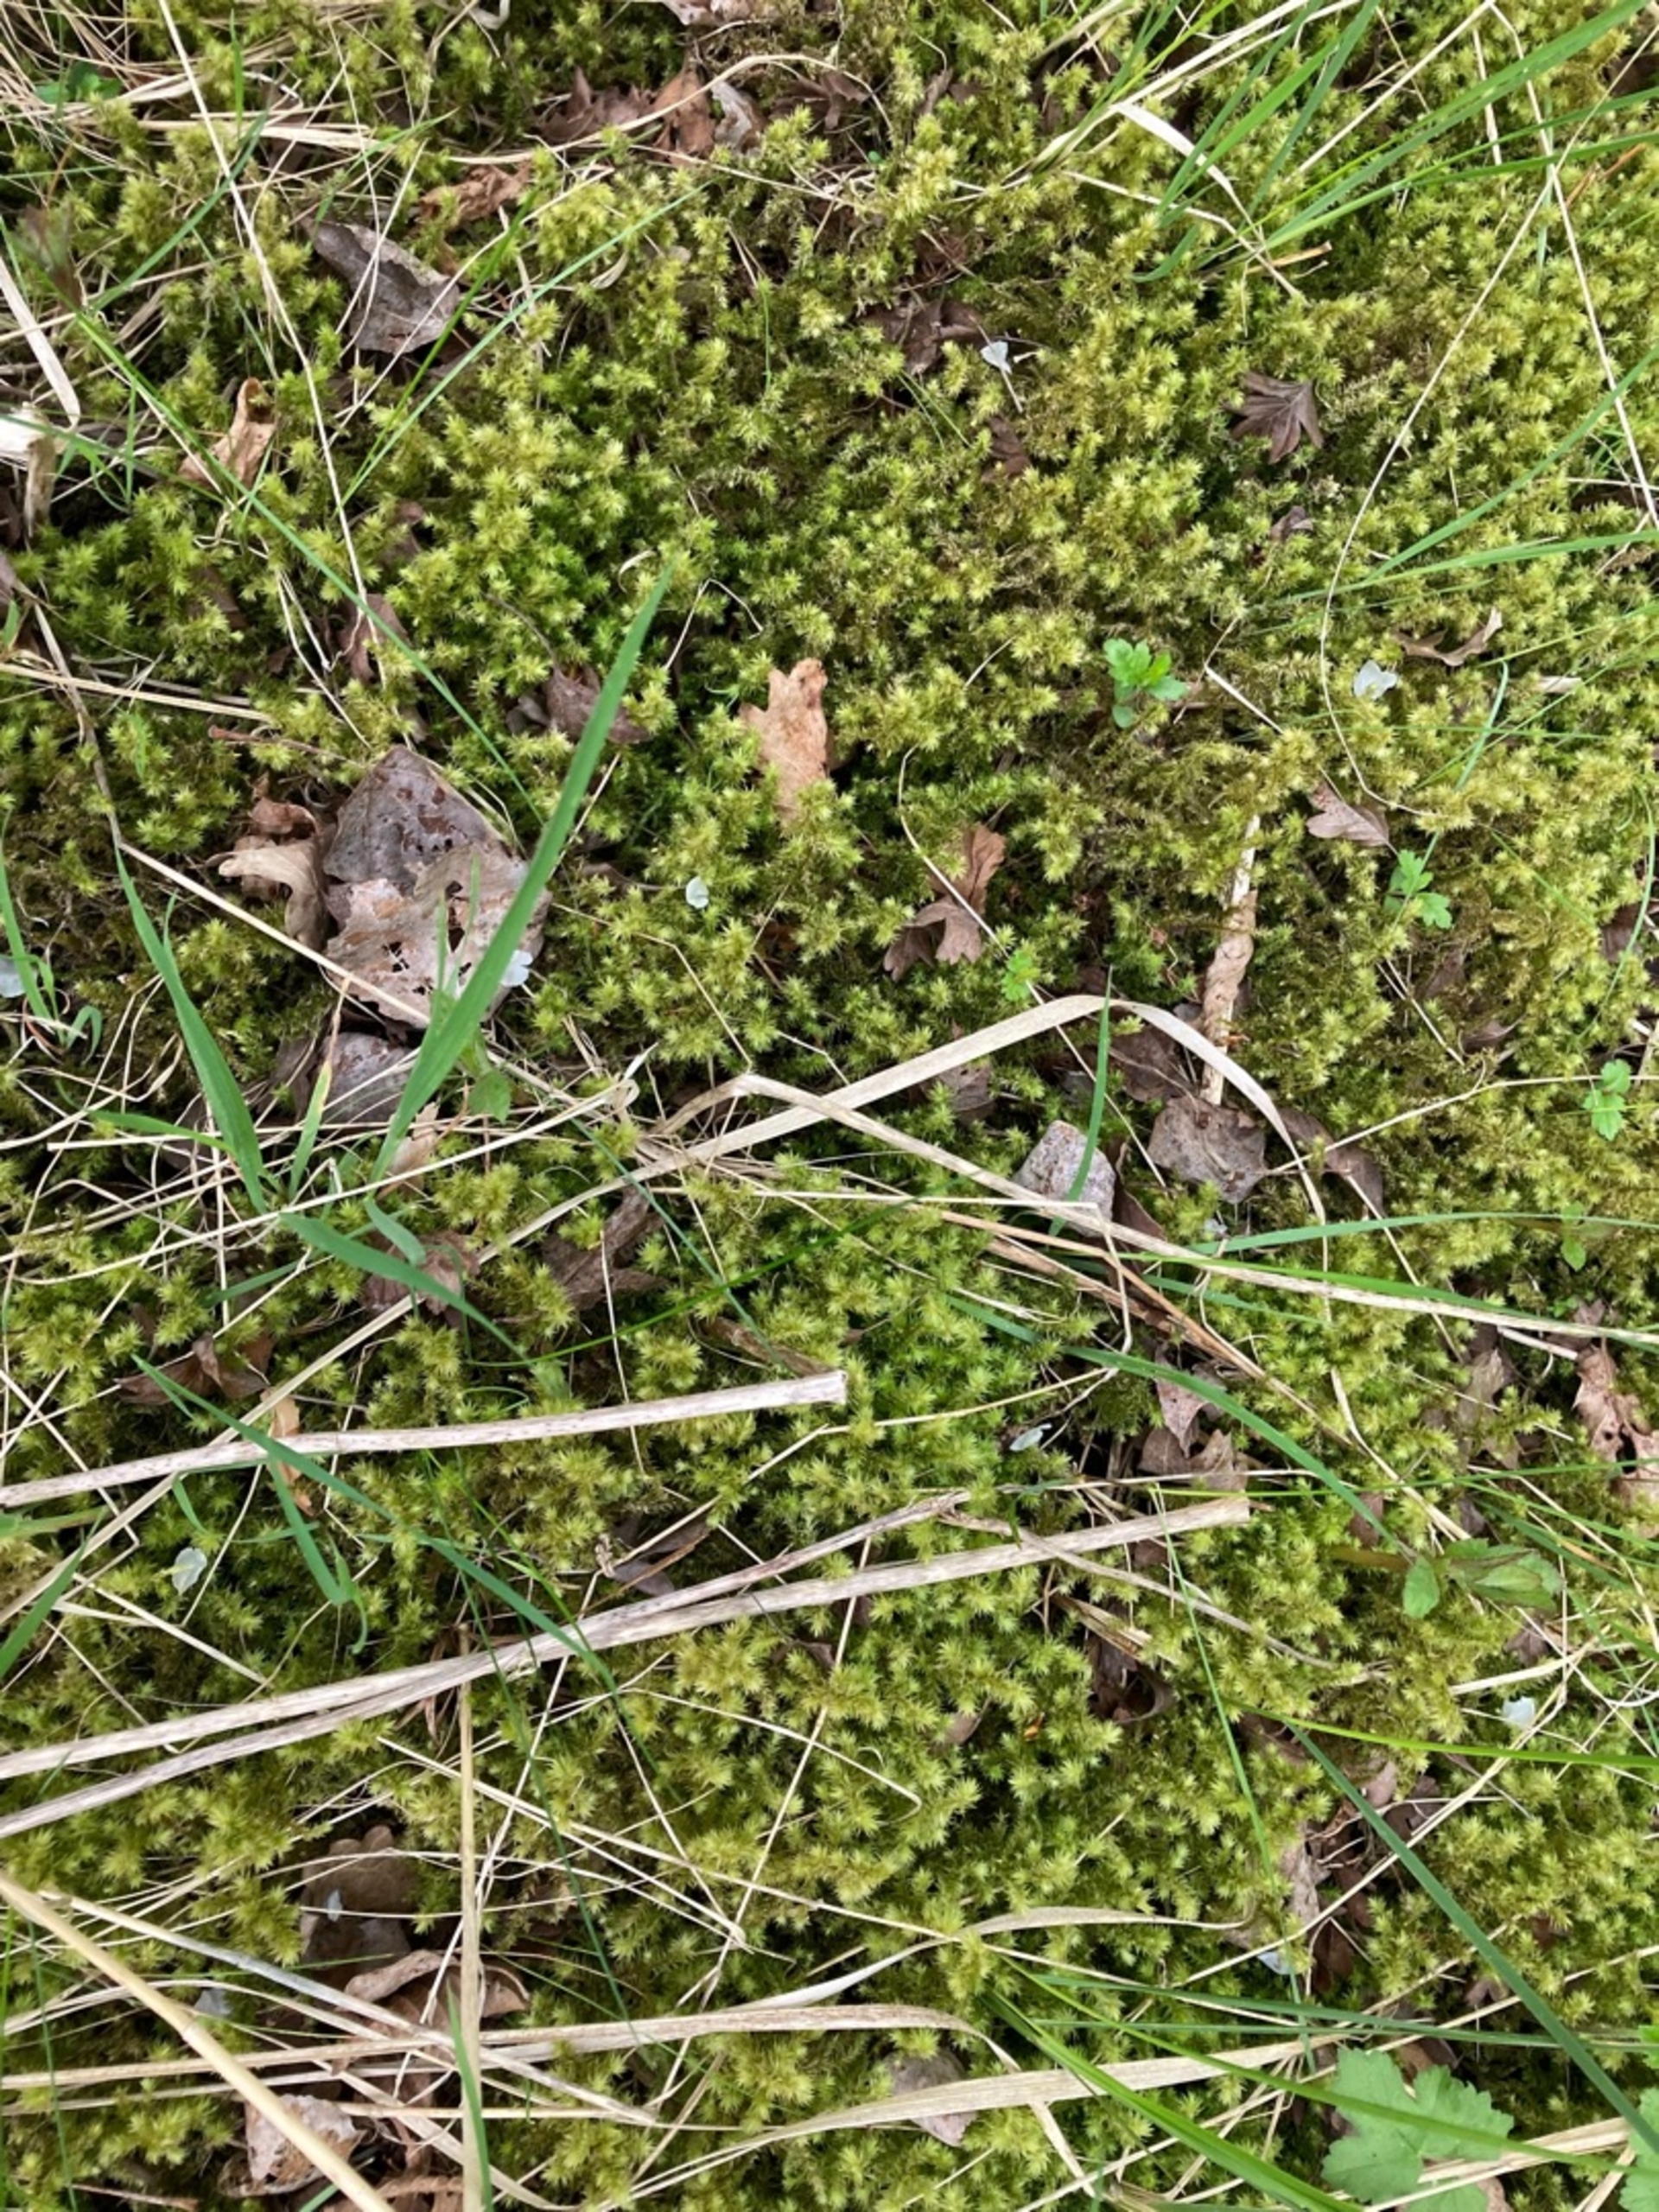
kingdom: Plantae
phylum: Bryophyta
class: Bryopsida
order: Hypnales
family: Hylocomiaceae
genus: Hylocomiadelphus
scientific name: Hylocomiadelphus triquetrus
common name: Stor kransemos
